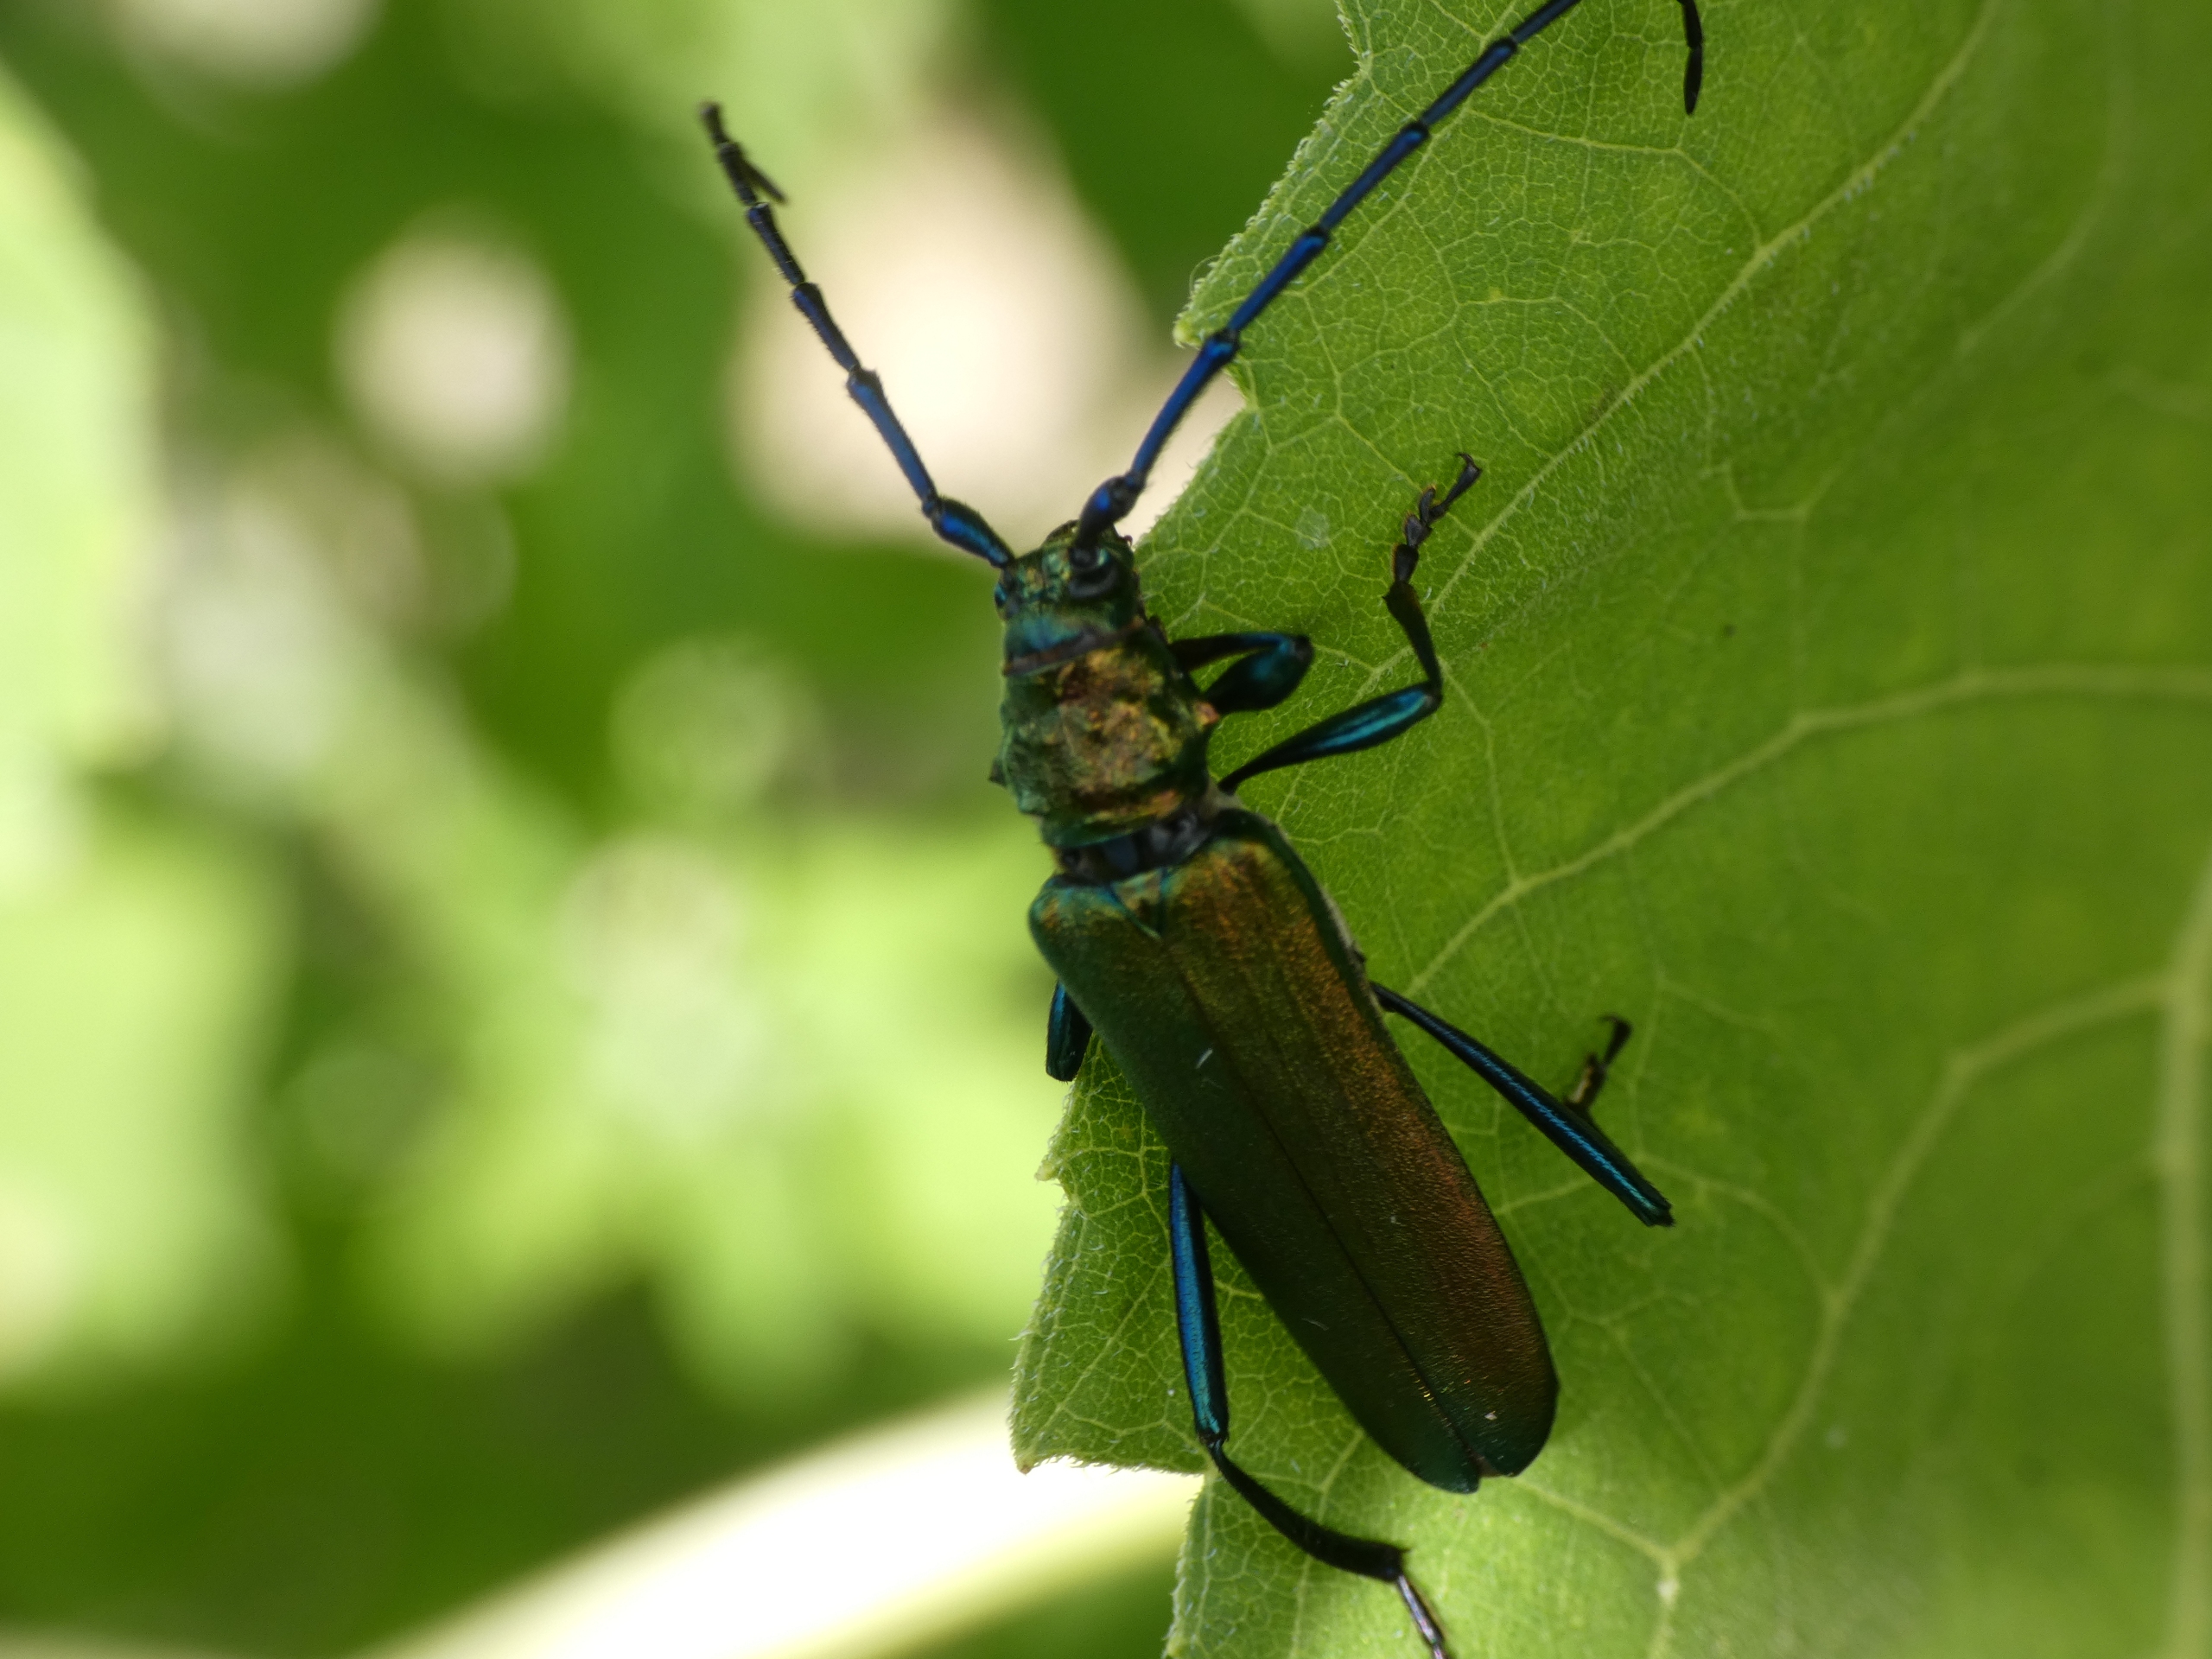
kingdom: Animalia
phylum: Arthropoda
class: Insecta
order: Coleoptera
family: Cerambycidae
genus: Aromia
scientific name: Aromia moschata
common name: Moskusbuk
